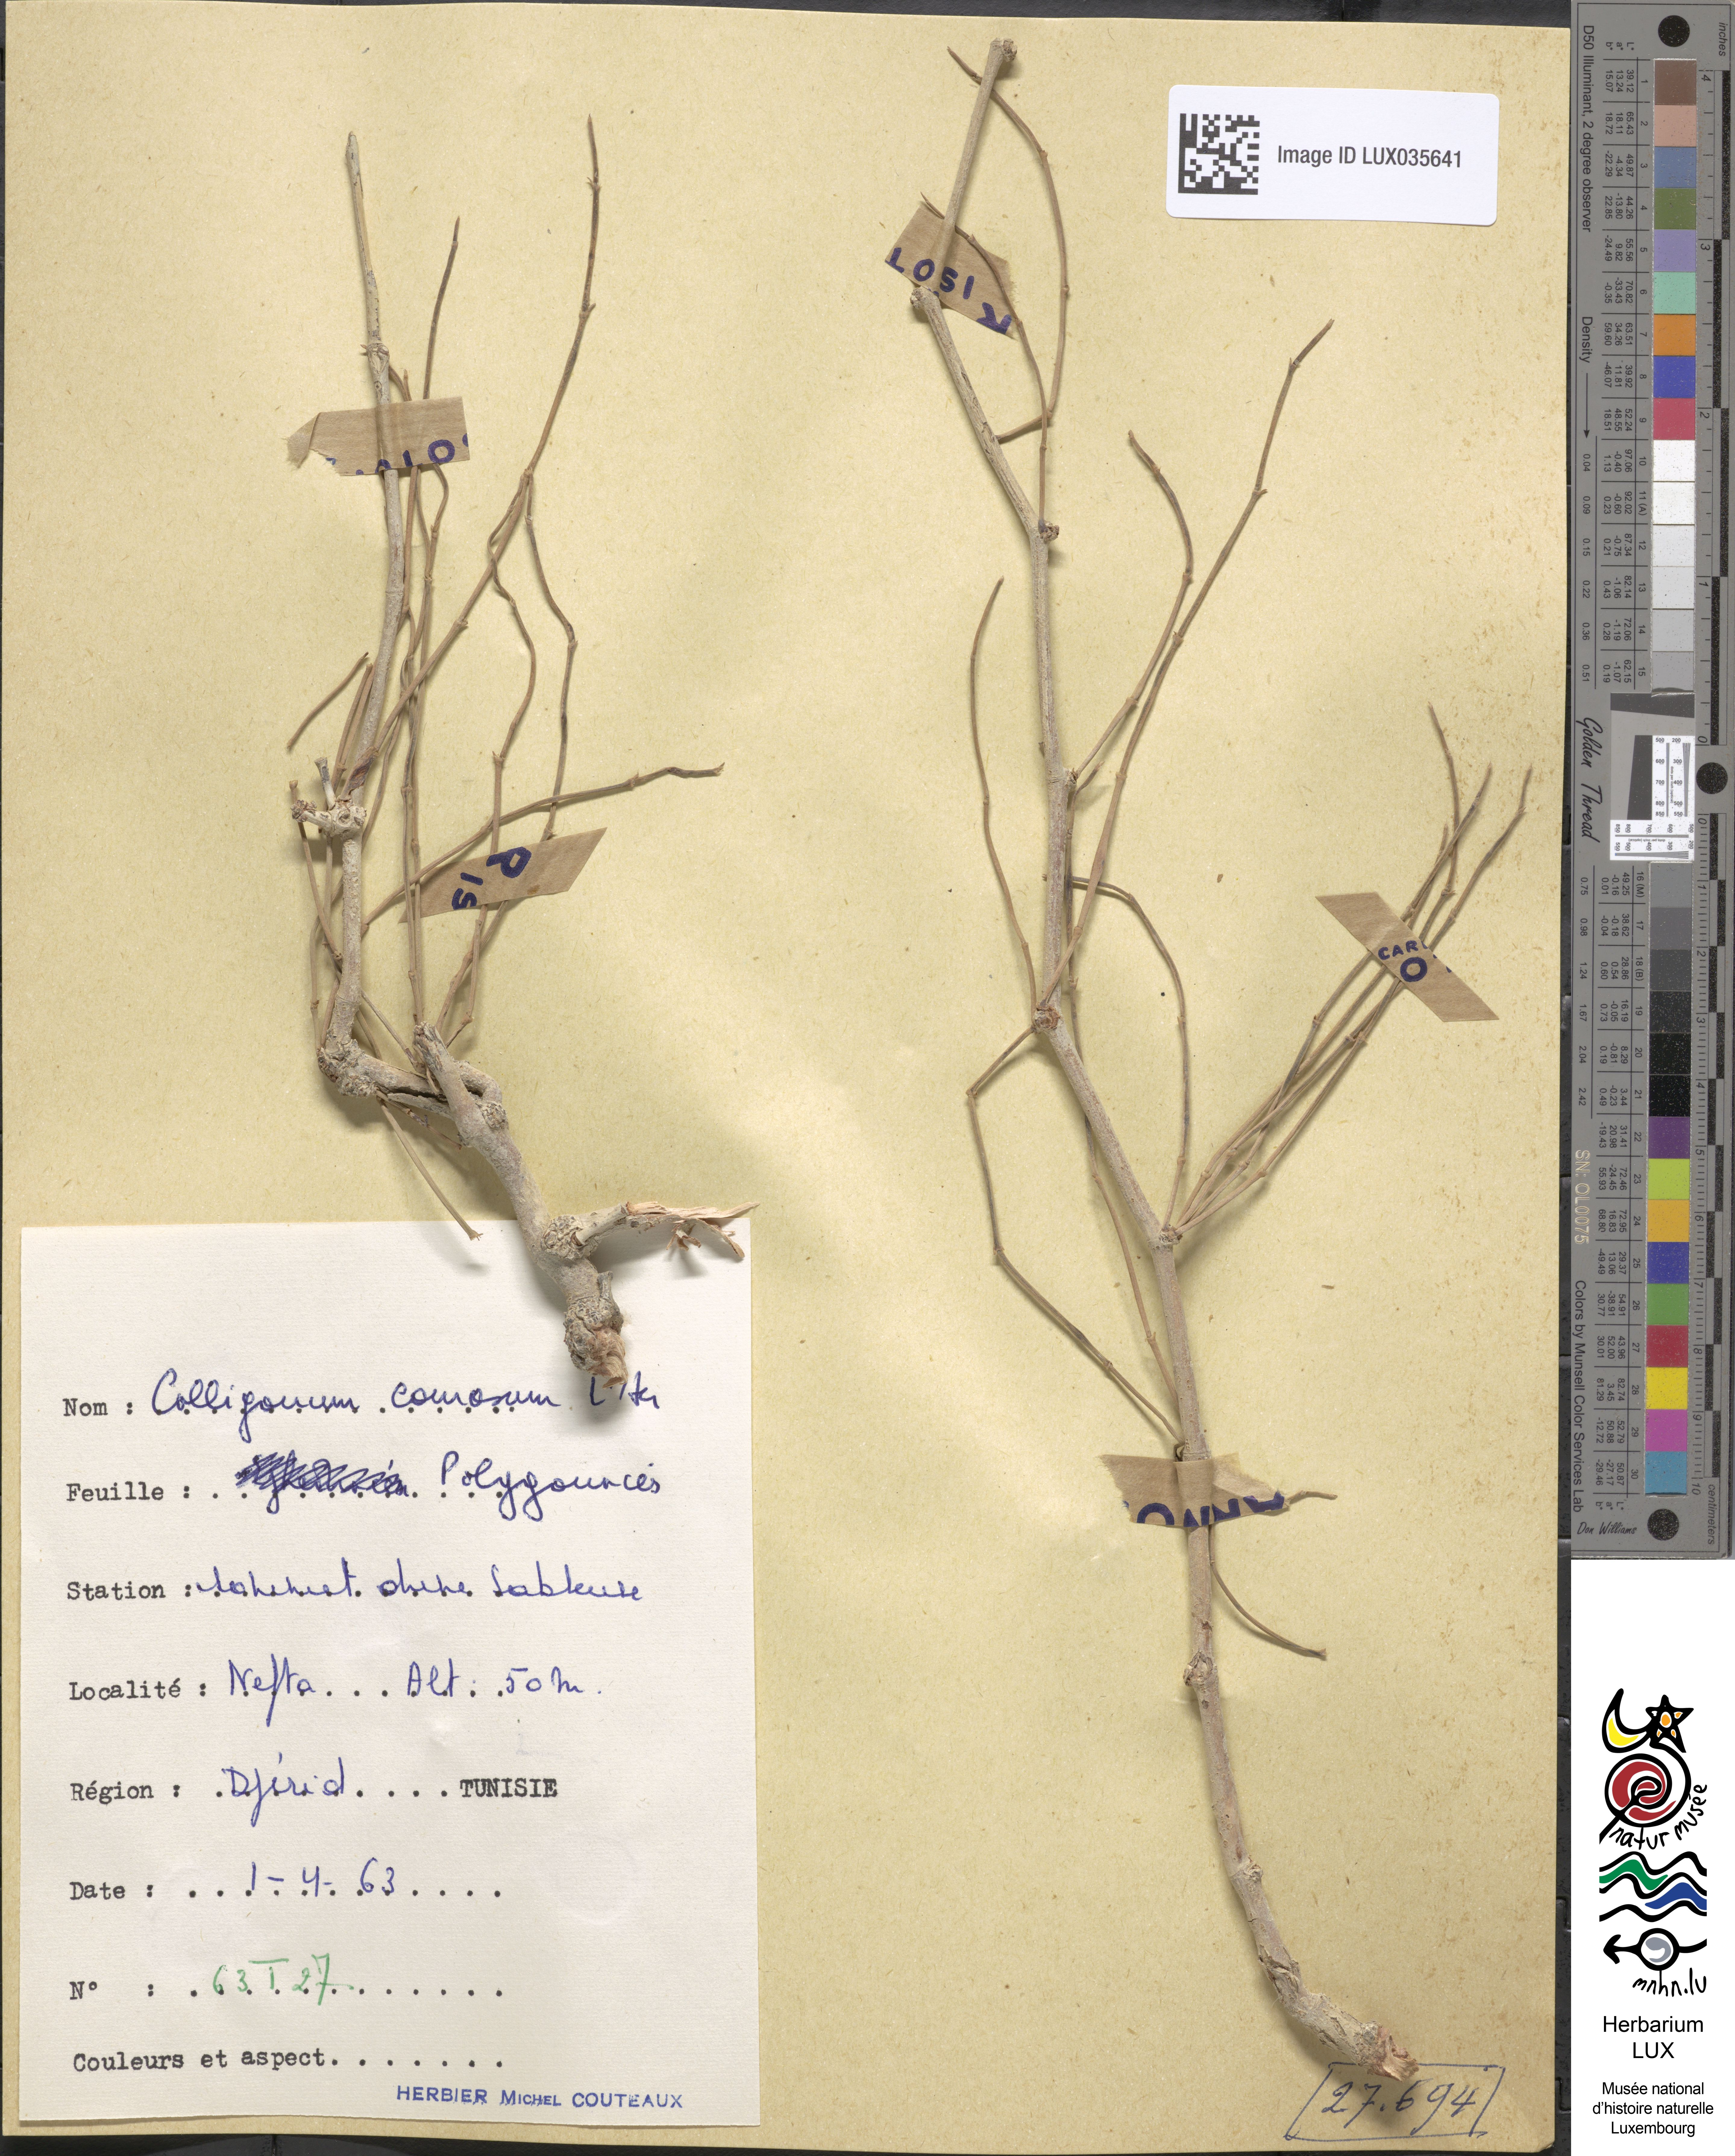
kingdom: Plantae
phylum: Tracheophyta
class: Magnoliopsida
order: Caryophyllales
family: Polygonaceae
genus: Calligonum
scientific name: Calligonum comosum
